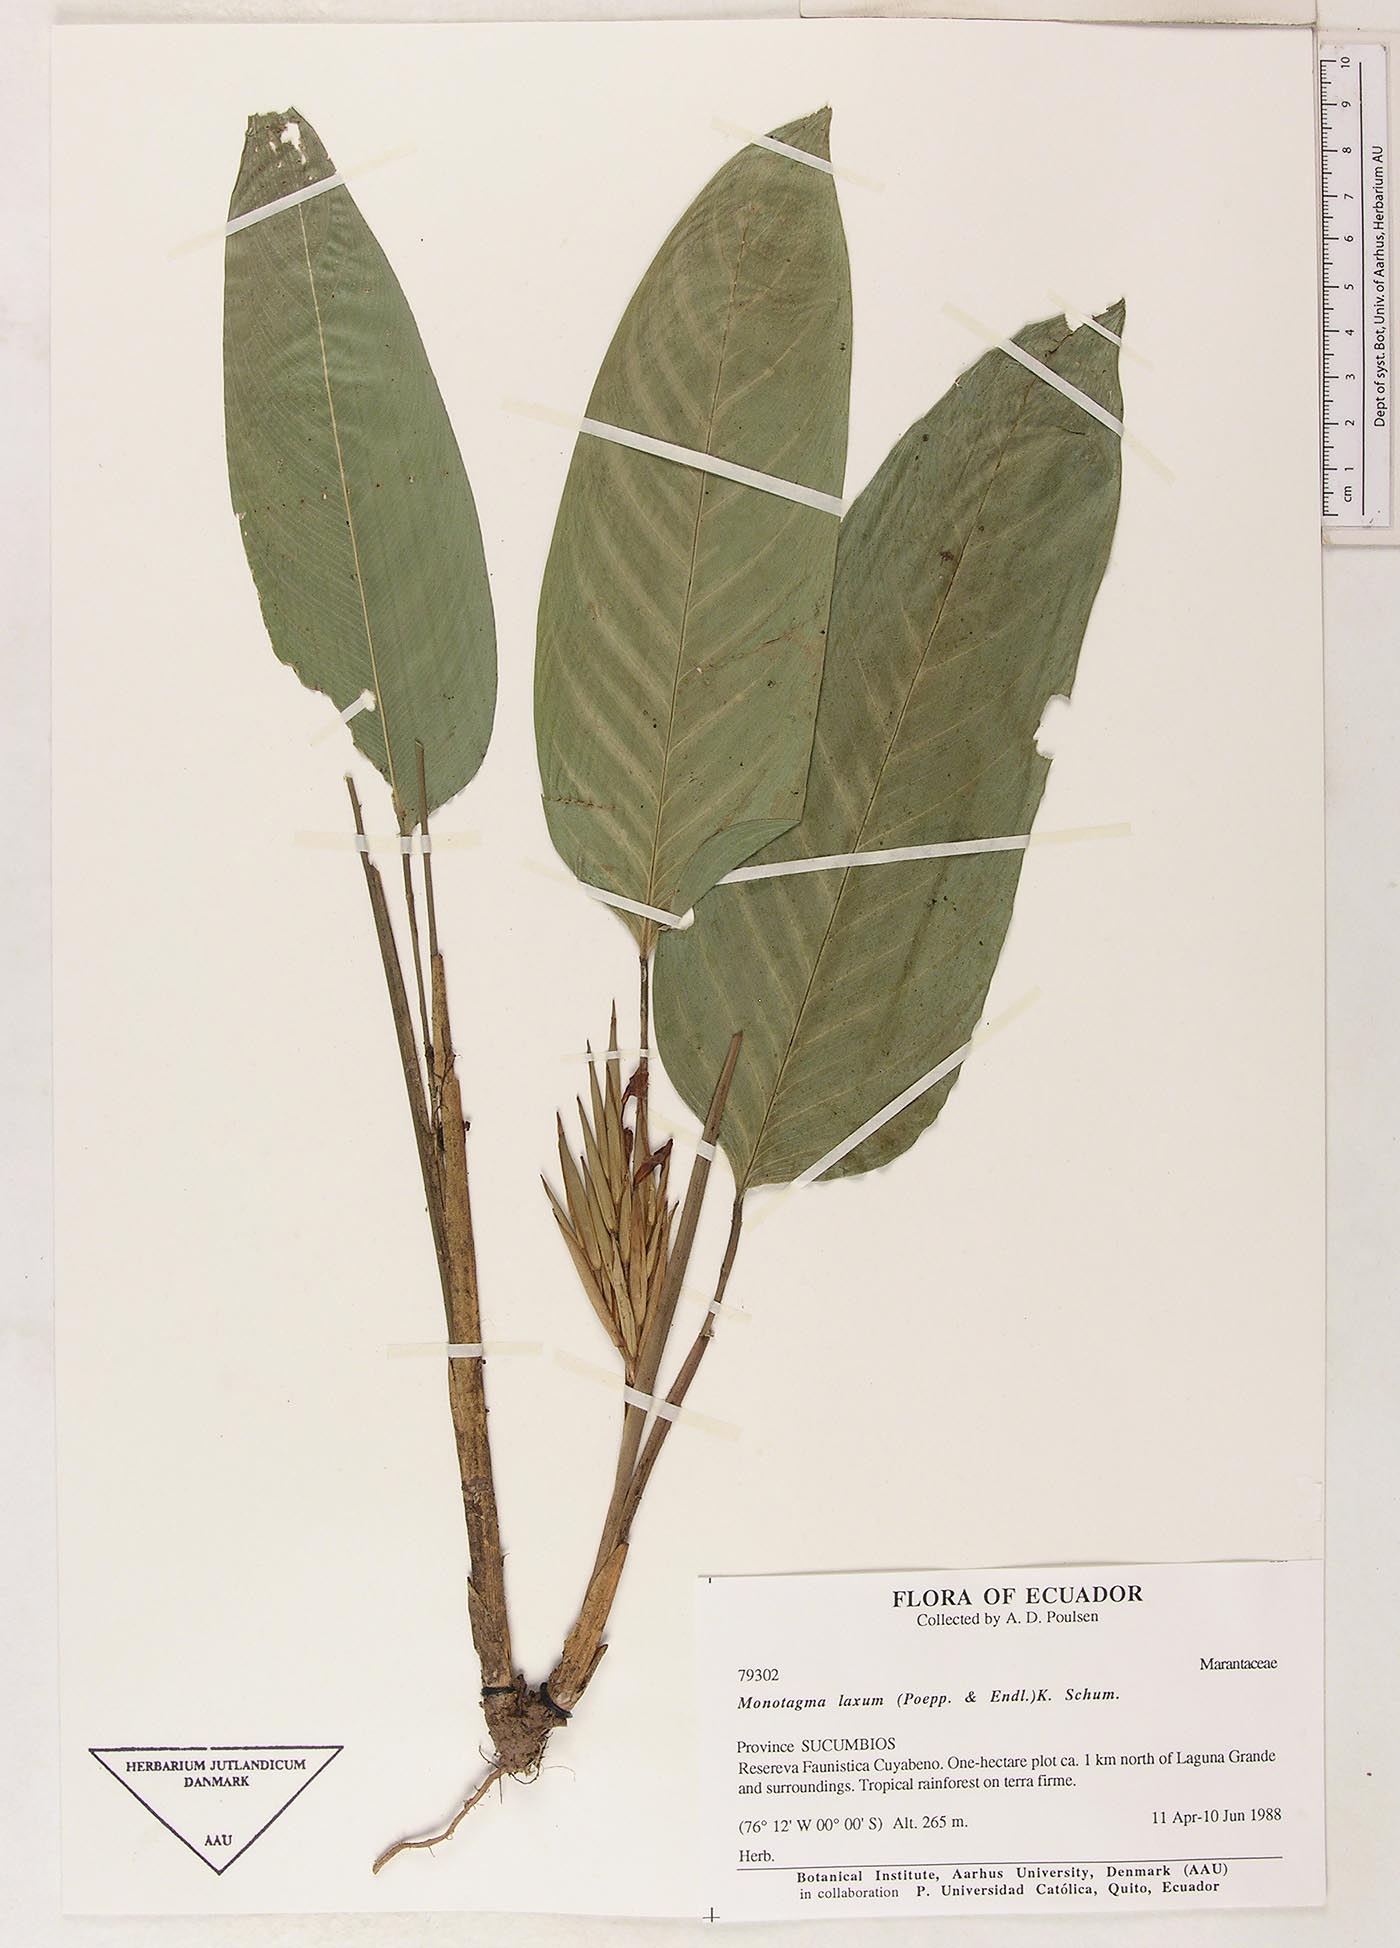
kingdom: Plantae
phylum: Tracheophyta
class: Liliopsida
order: Zingiberales
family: Marantaceae
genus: Monotagma
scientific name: Monotagma laxum
